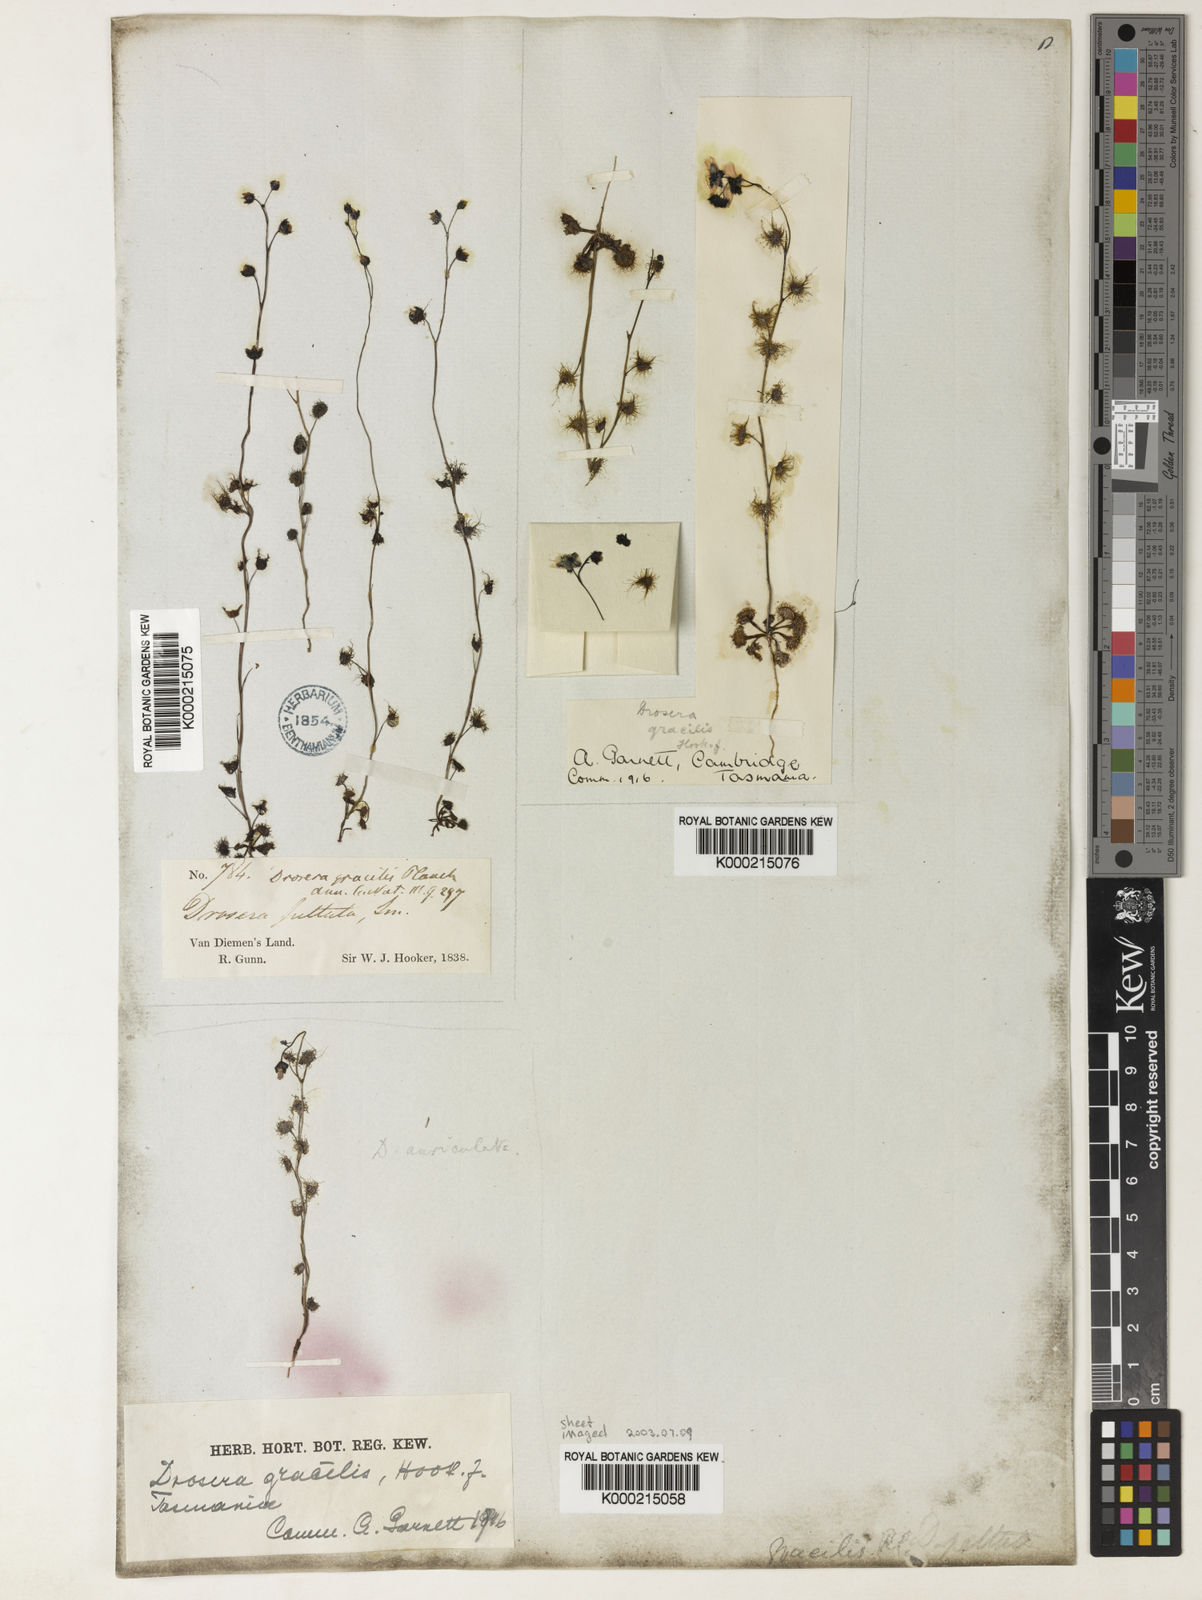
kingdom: Plantae
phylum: Tracheophyta
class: Magnoliopsida
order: Caryophyllales
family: Droseraceae
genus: Drosera
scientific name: Drosera peltata
